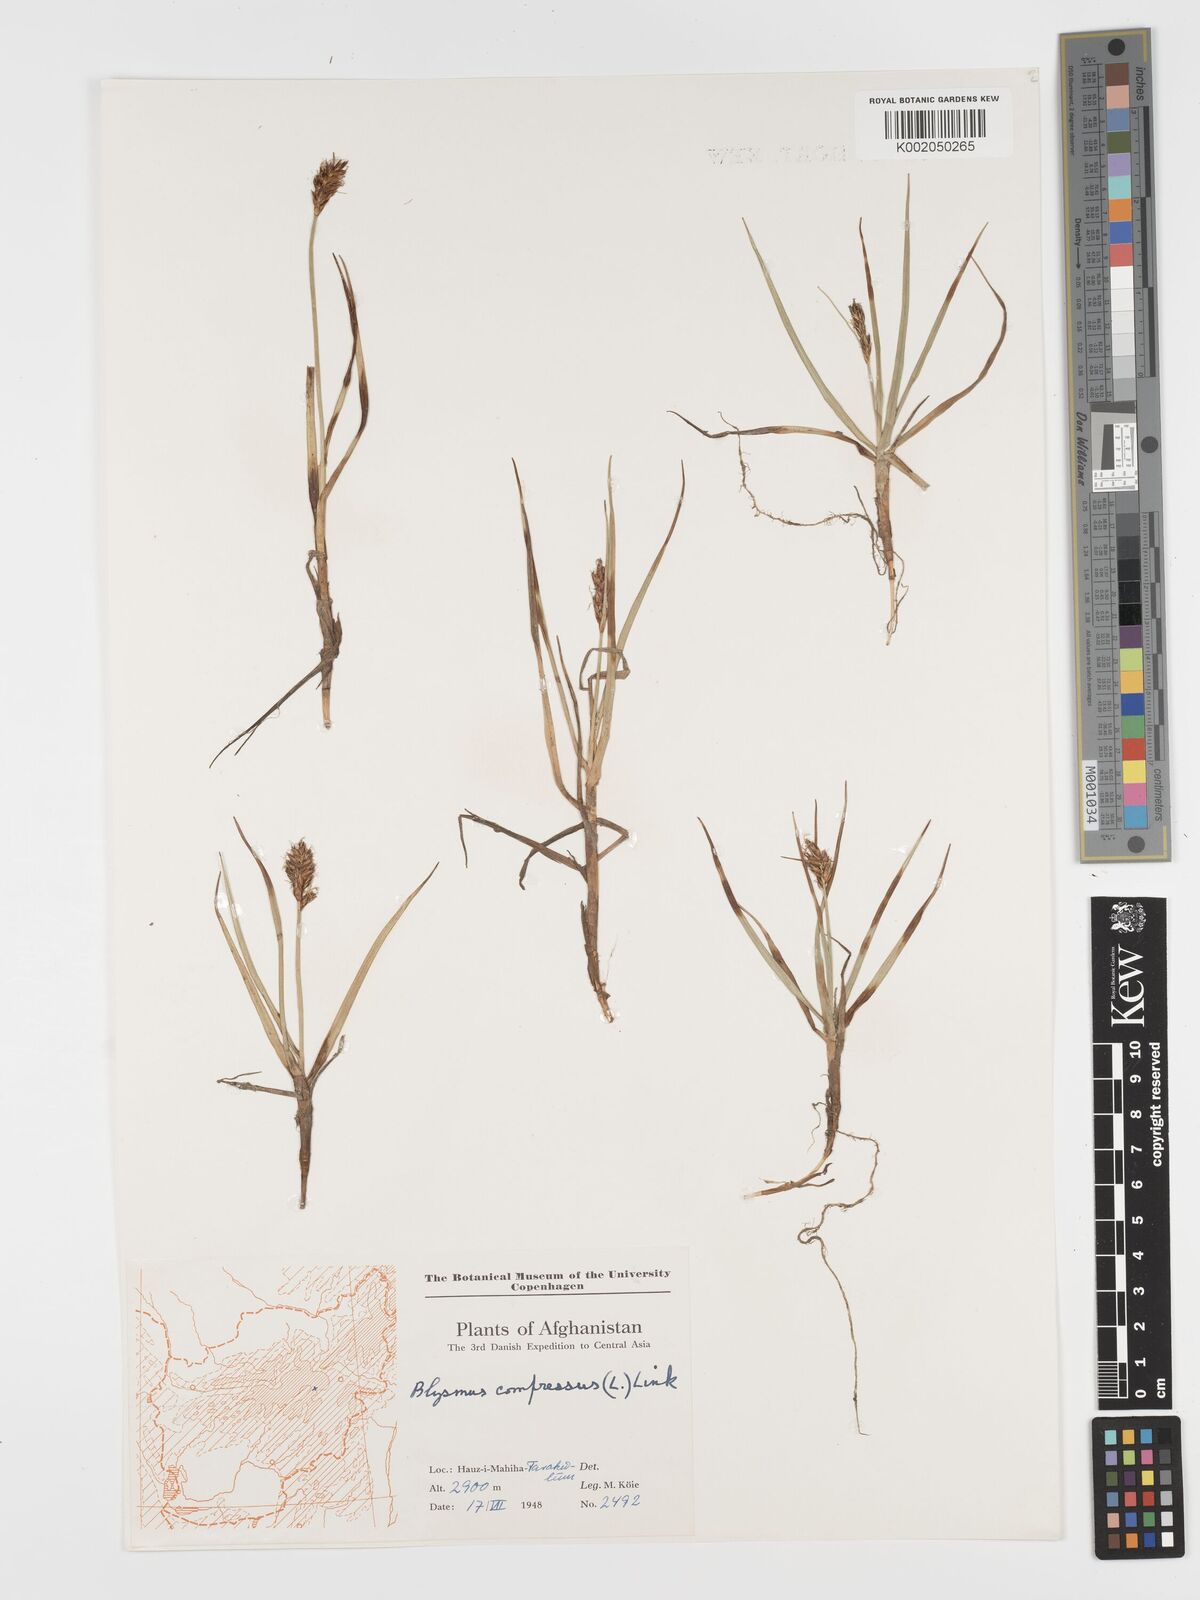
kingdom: Plantae
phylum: Tracheophyta
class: Liliopsida
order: Poales
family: Cyperaceae
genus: Blysmus
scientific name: Blysmus compressus
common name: Flat-sedge
